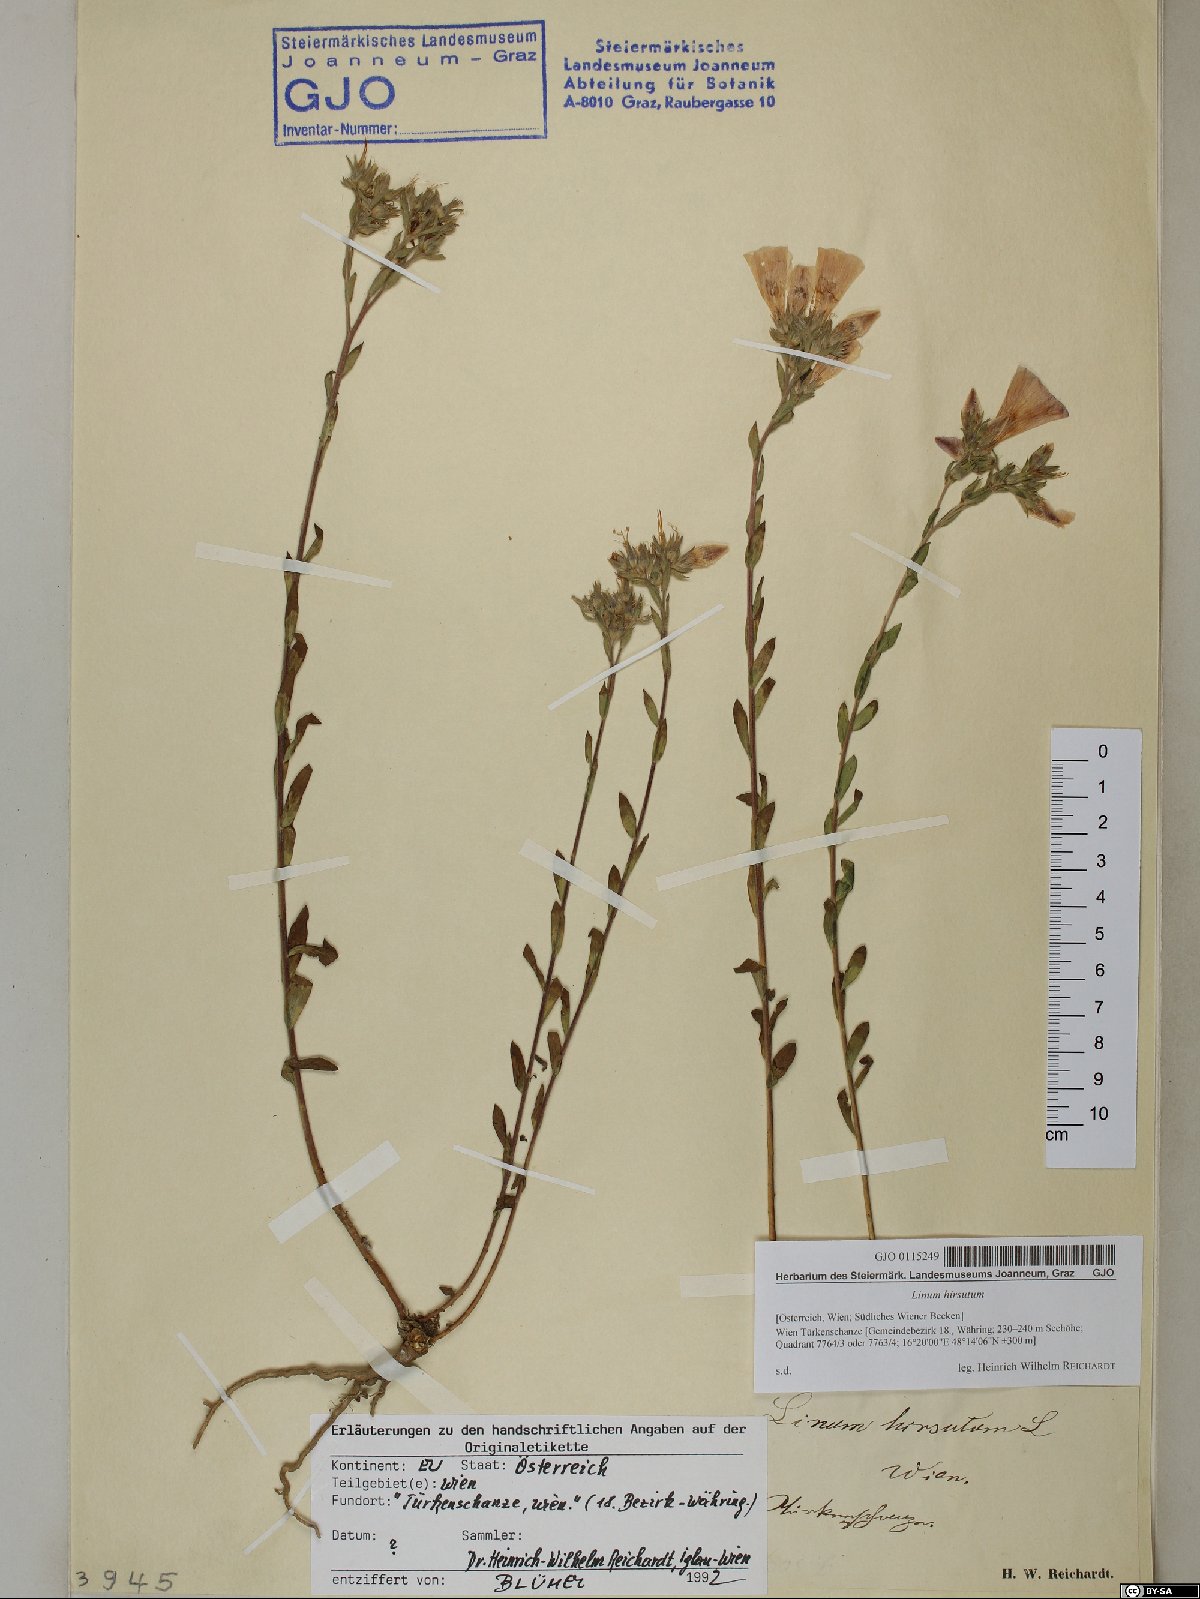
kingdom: Plantae
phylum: Tracheophyta
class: Magnoliopsida
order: Malpighiales
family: Linaceae
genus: Linum
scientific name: Linum hirsutum
